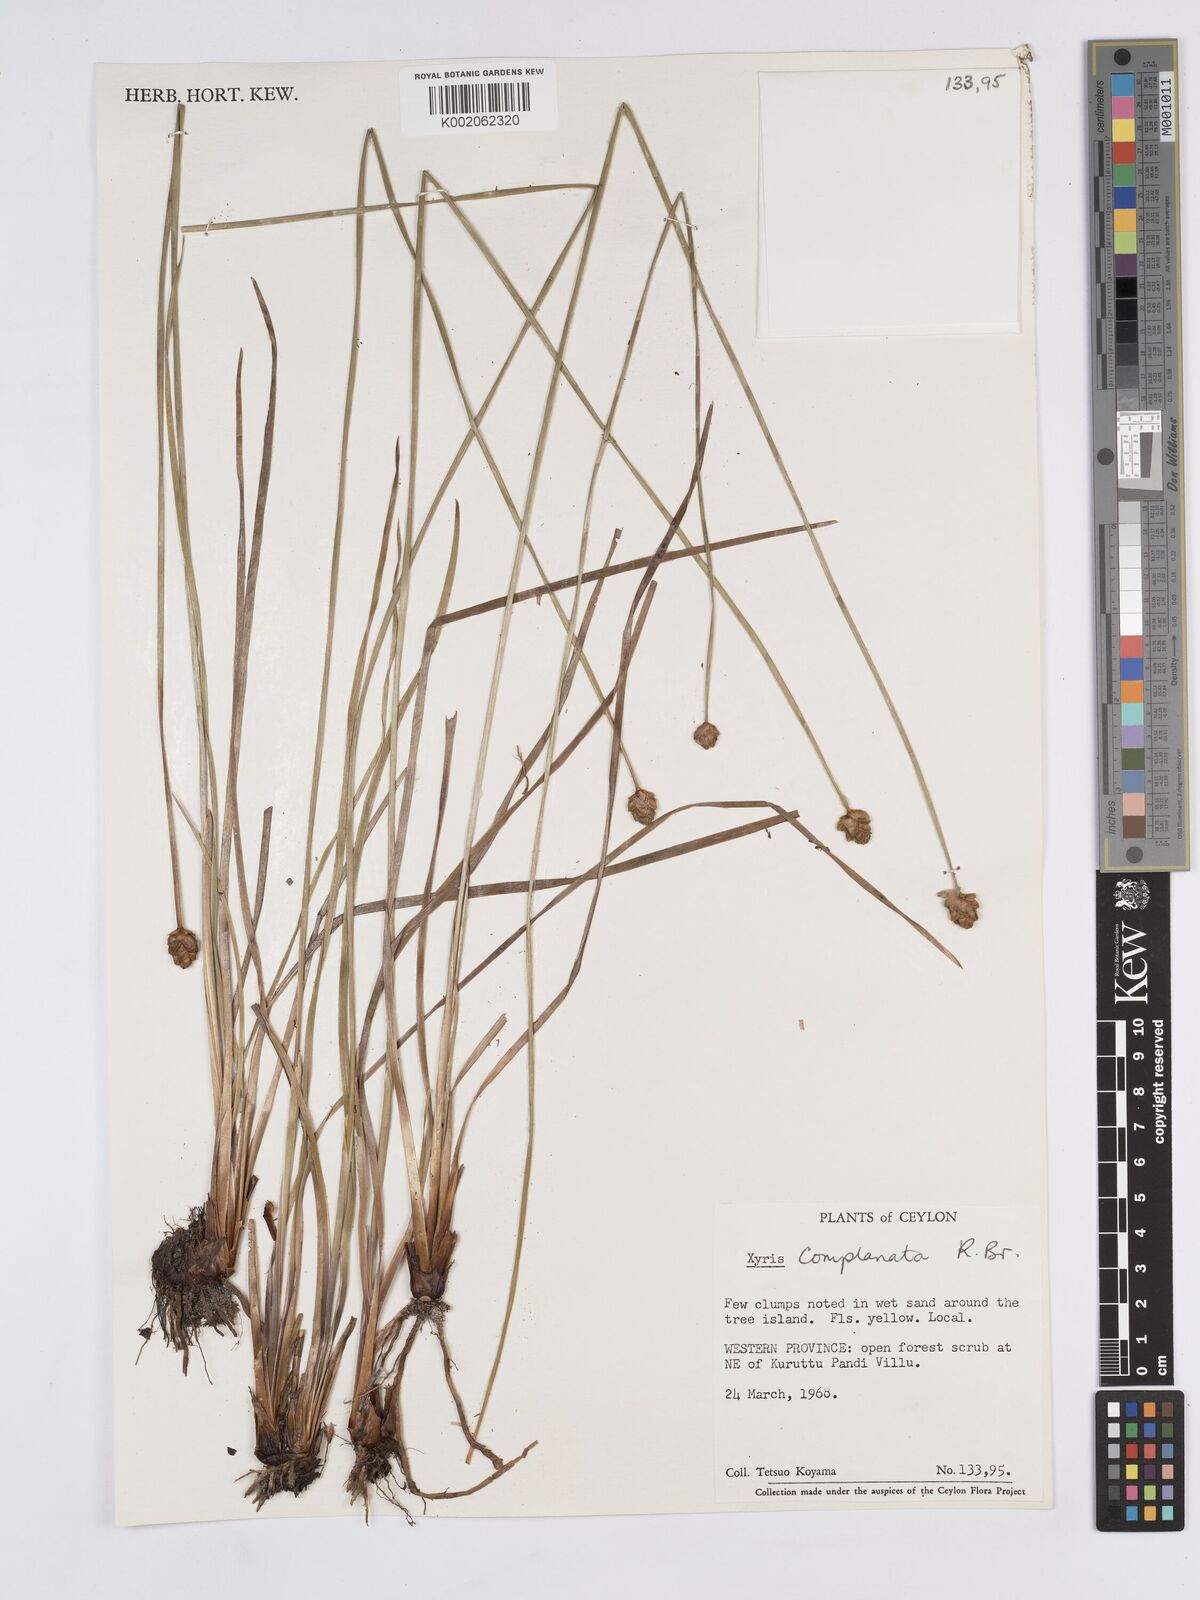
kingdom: Plantae
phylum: Tracheophyta
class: Liliopsida
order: Poales
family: Xyridaceae
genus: Xyris
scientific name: Xyris complanata
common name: Hawai'i yelloweyed grass
